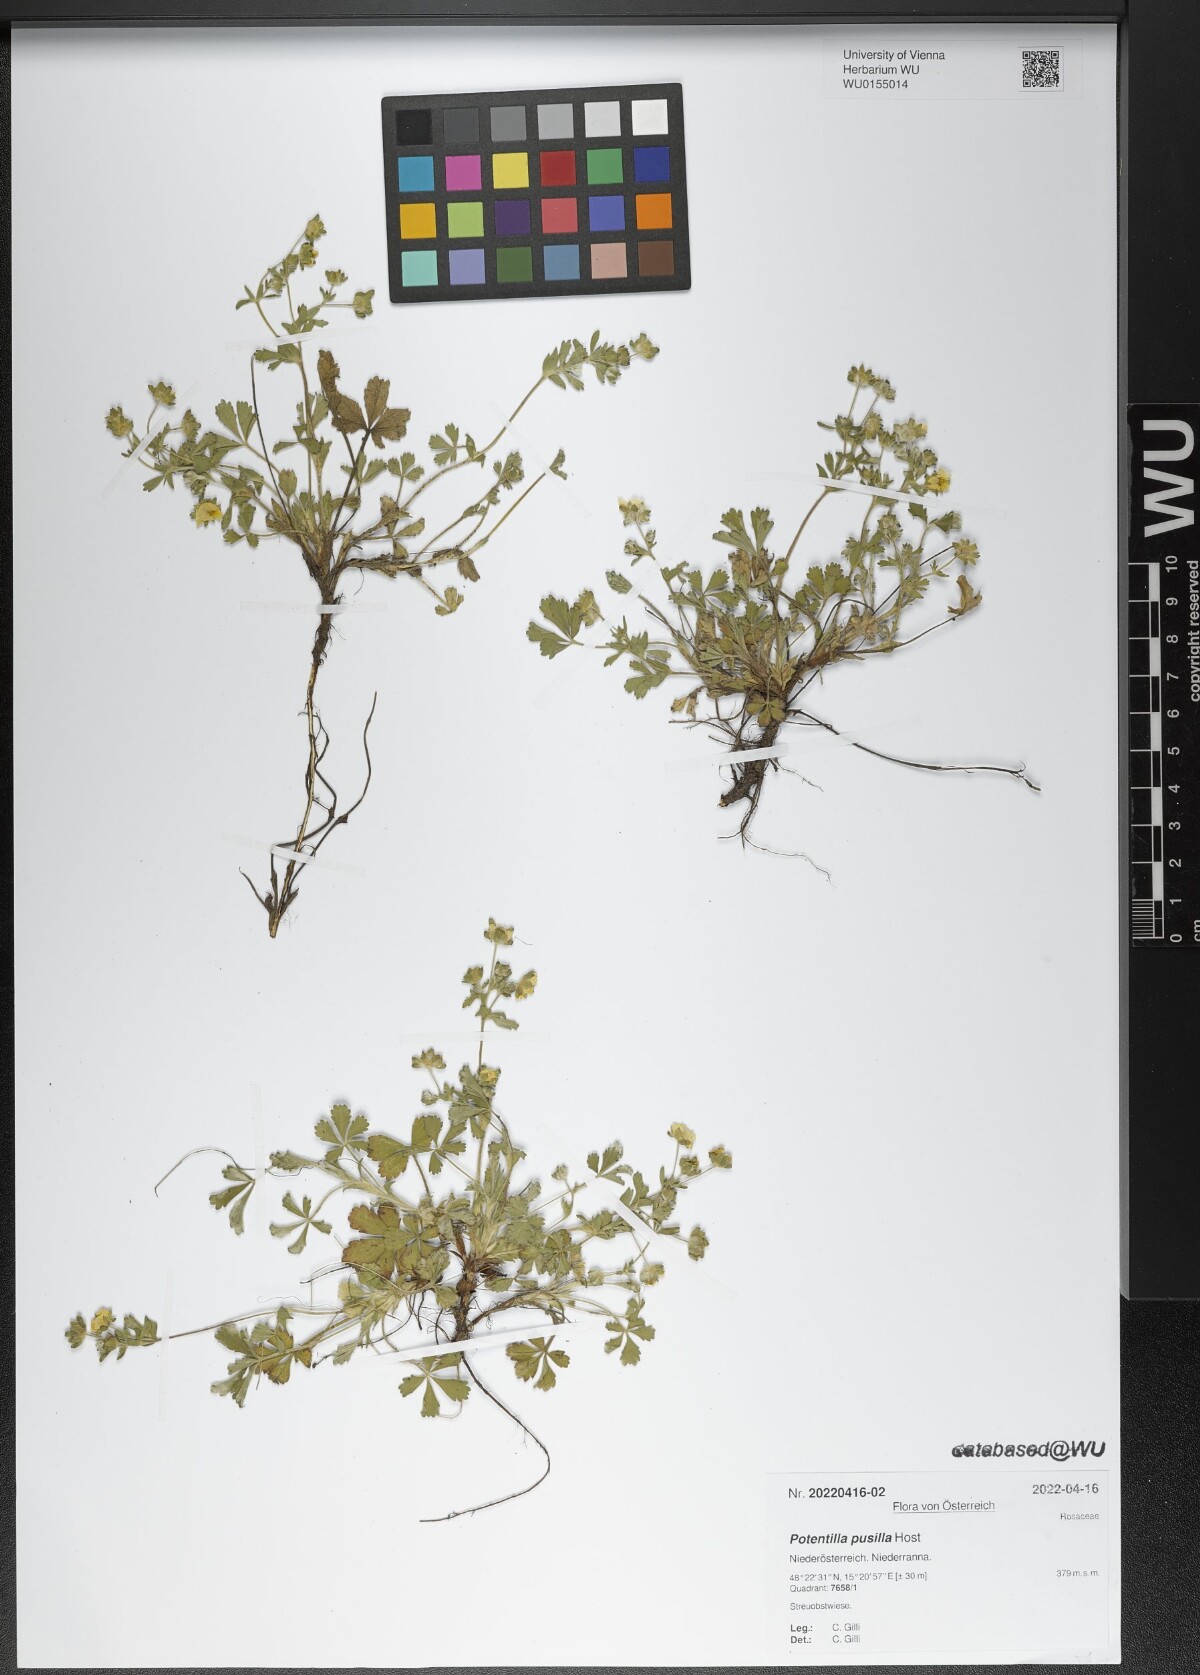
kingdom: Plantae
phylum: Tracheophyta
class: Magnoliopsida
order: Rosales
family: Rosaceae
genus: Potentilla
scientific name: Potentilla pusilla
